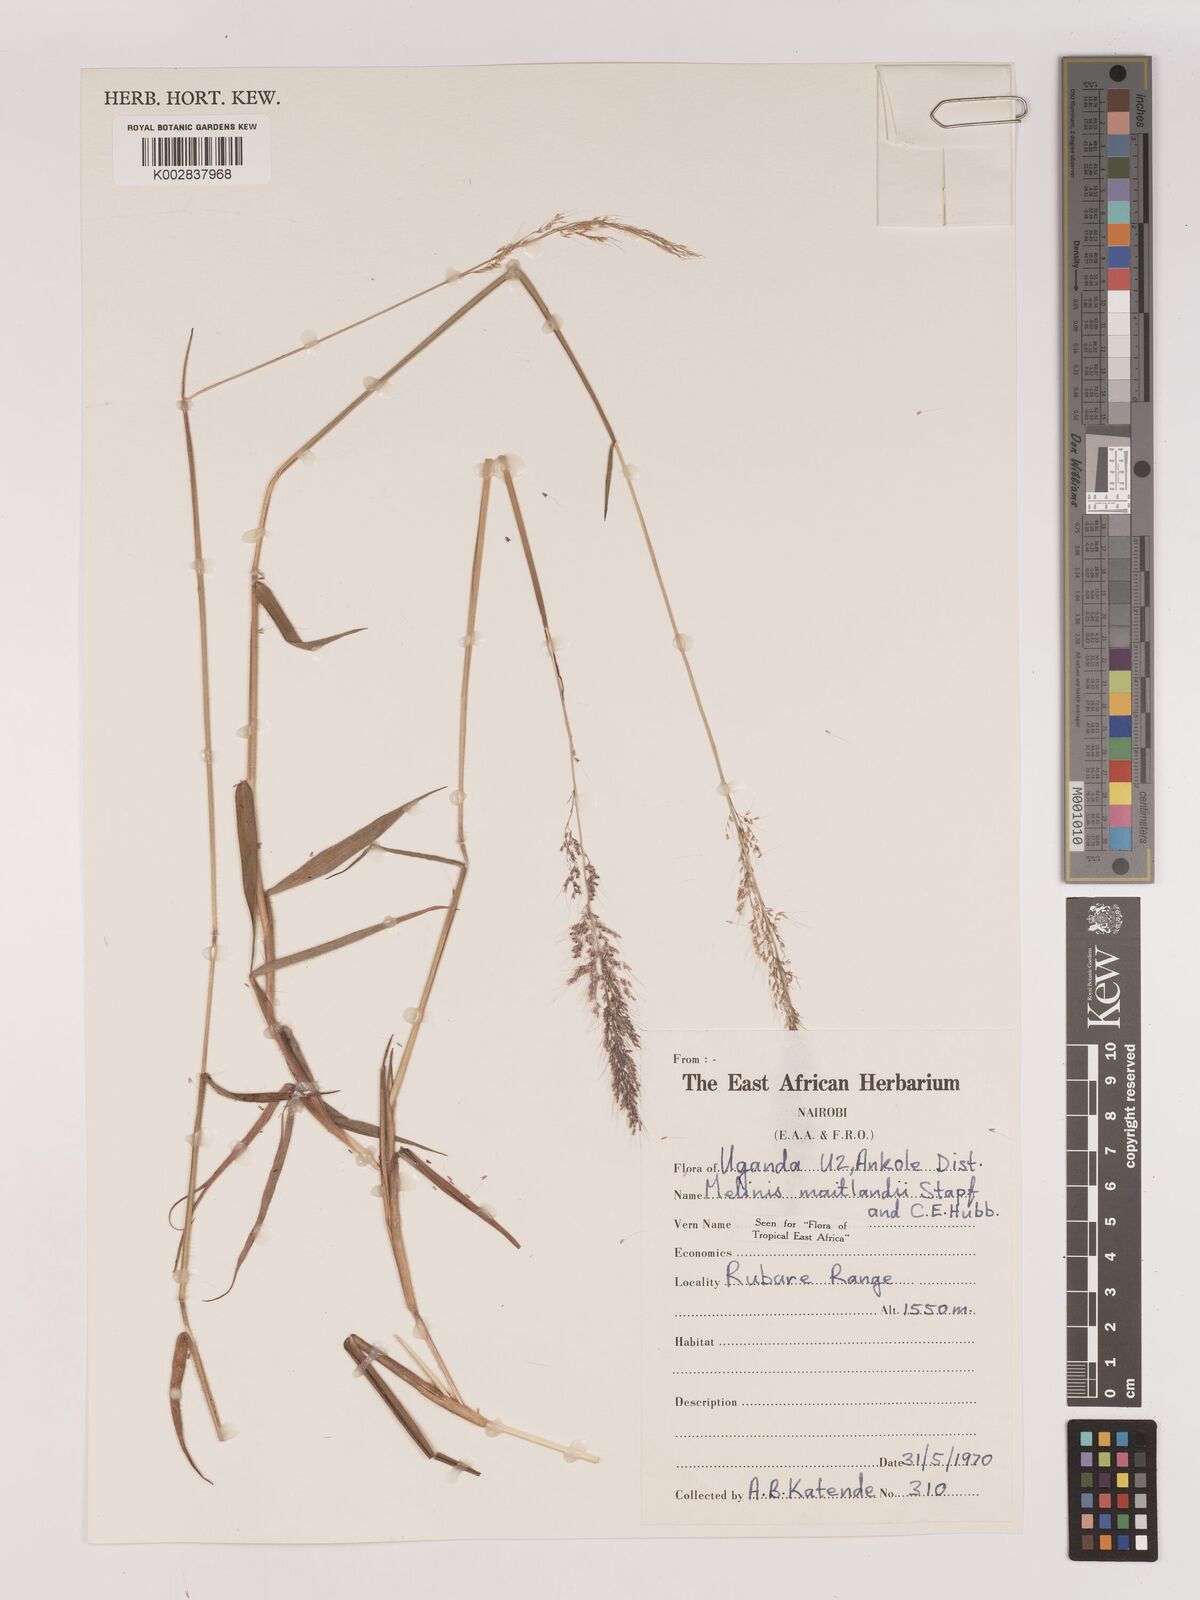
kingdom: Plantae
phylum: Tracheophyta
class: Liliopsida
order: Poales
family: Poaceae
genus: Melinis
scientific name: Melinis minutiflora
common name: Molassesgrass
